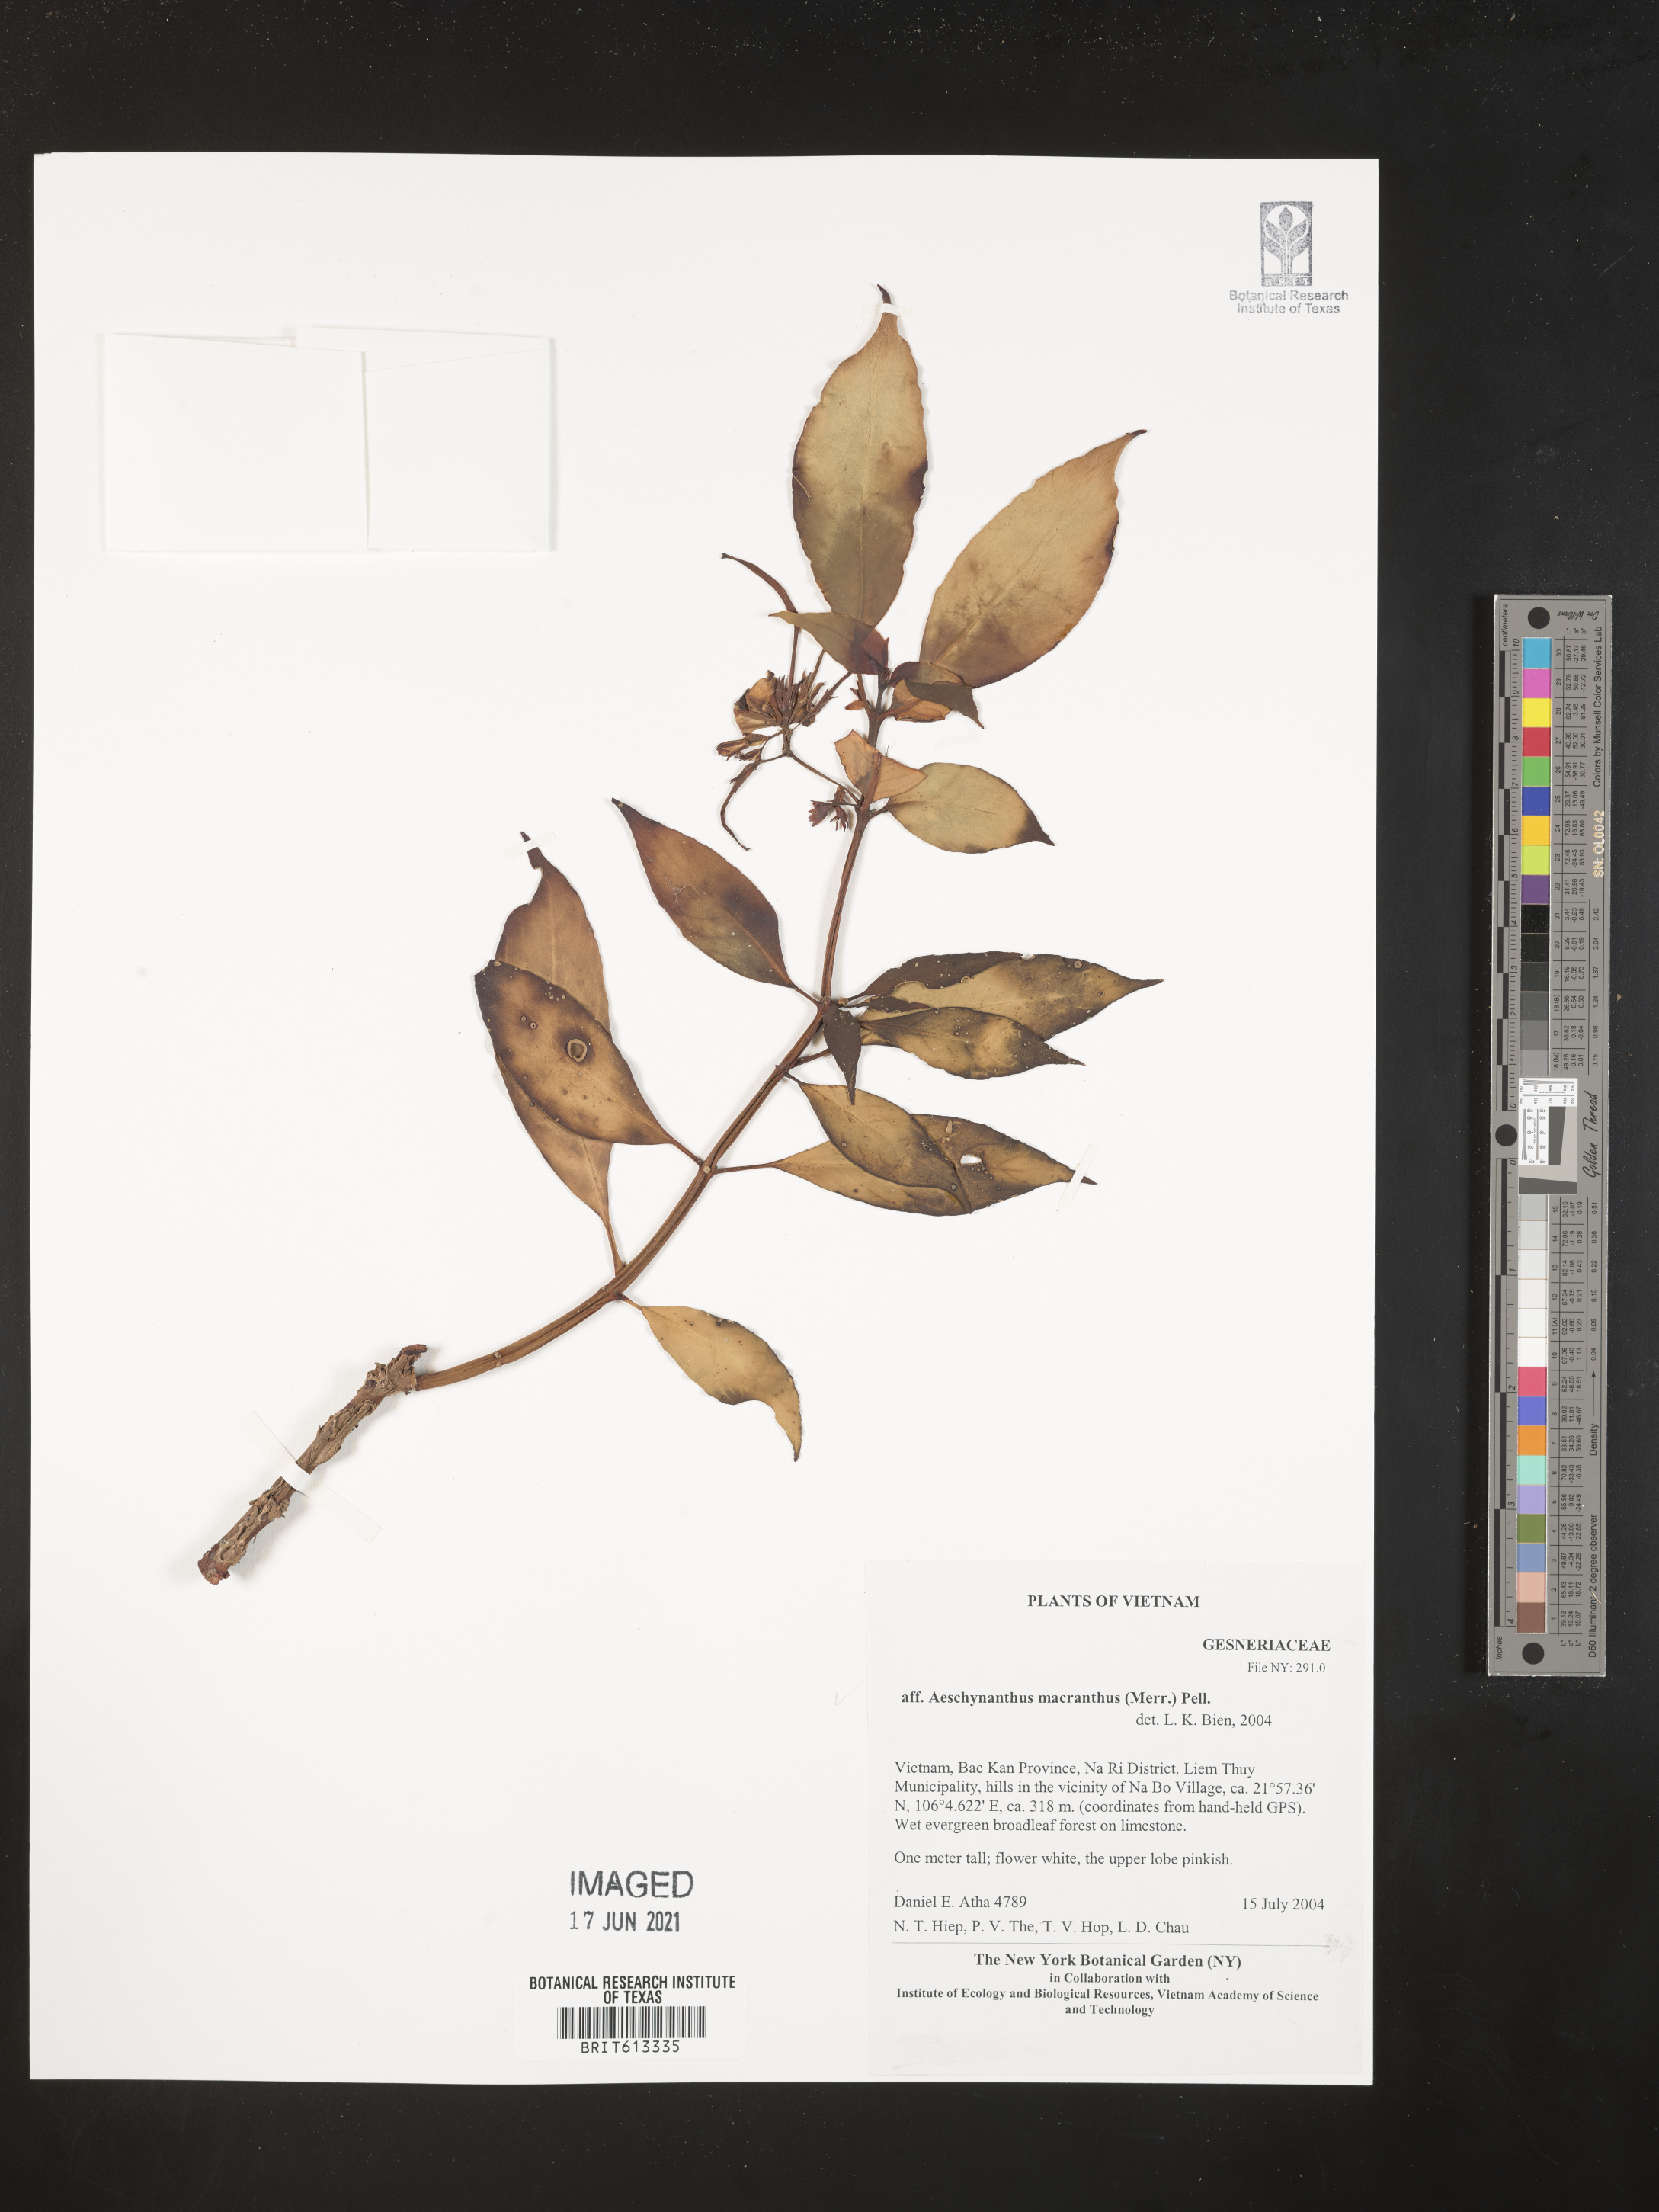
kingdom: Plantae
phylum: Tracheophyta
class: Magnoliopsida
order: Lamiales
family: Gesneriaceae
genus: Aeschynanthus
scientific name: Aeschynanthus parasiticus
